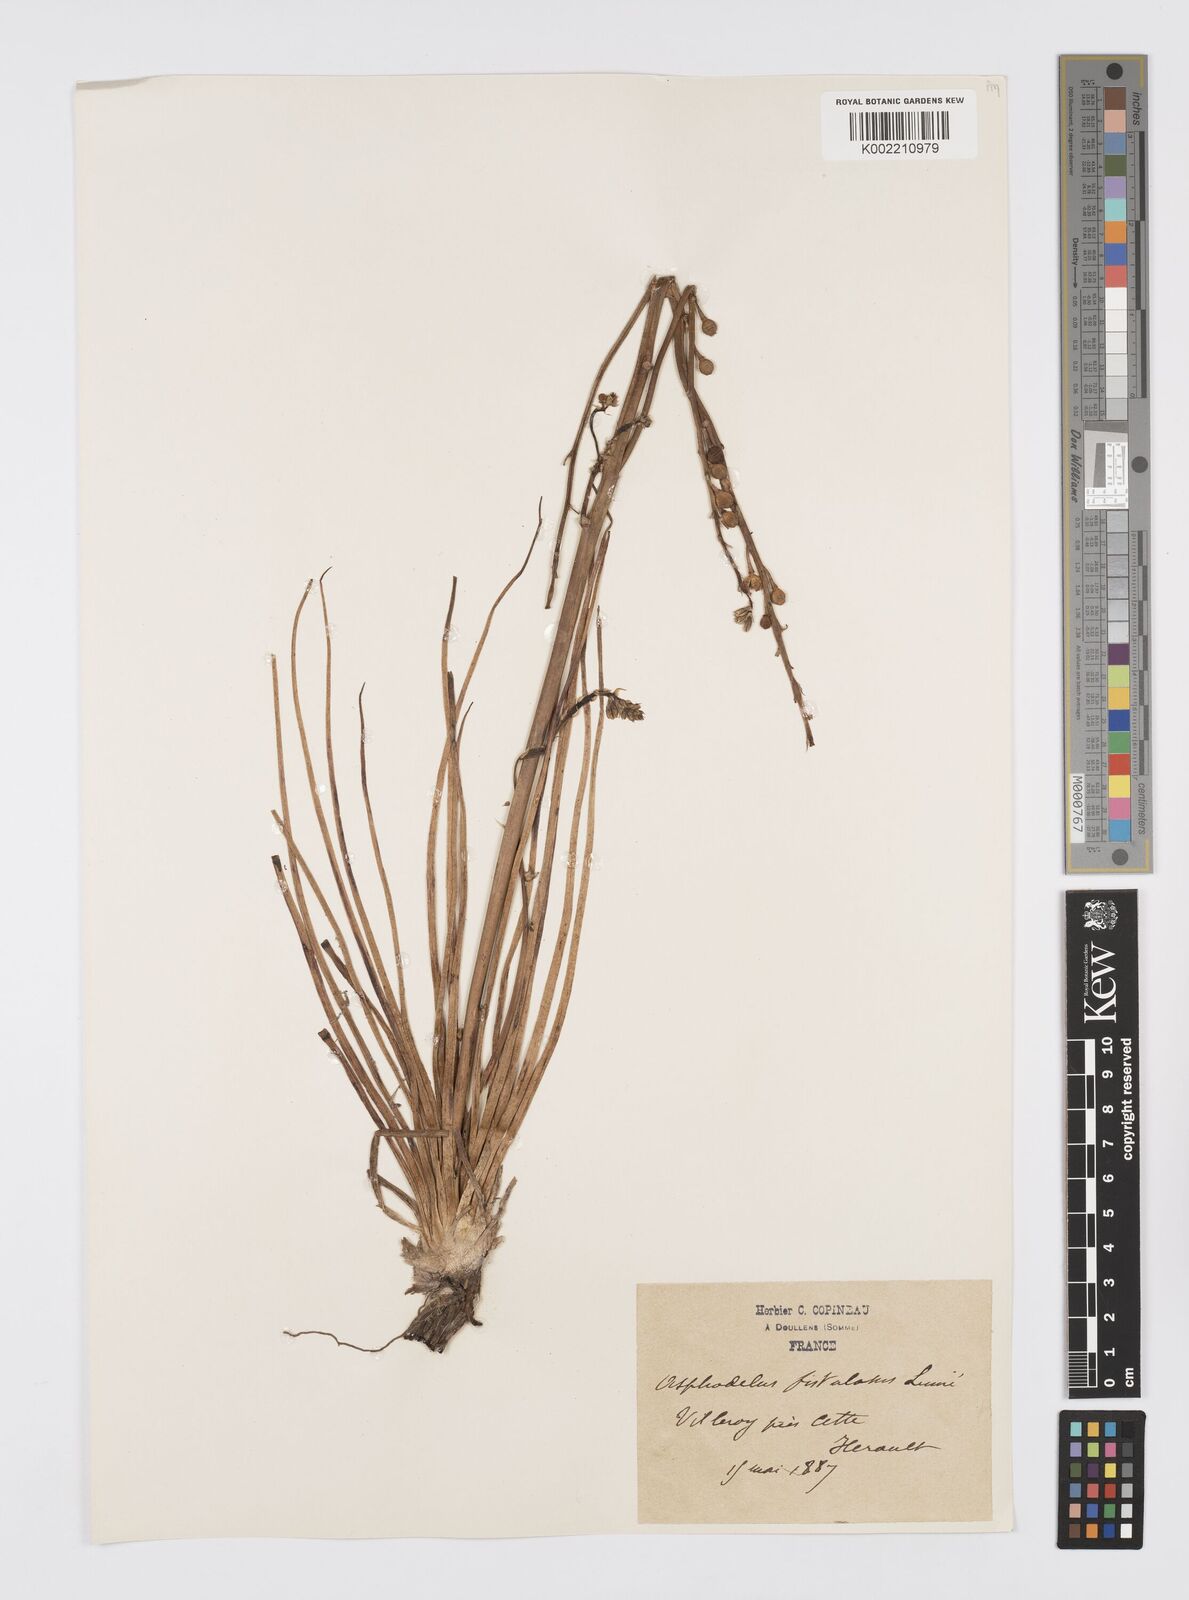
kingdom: Plantae
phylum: Tracheophyta
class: Liliopsida
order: Asparagales
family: Asphodelaceae
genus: Asphodelus
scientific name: Asphodelus fistulosus
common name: Onionweed
